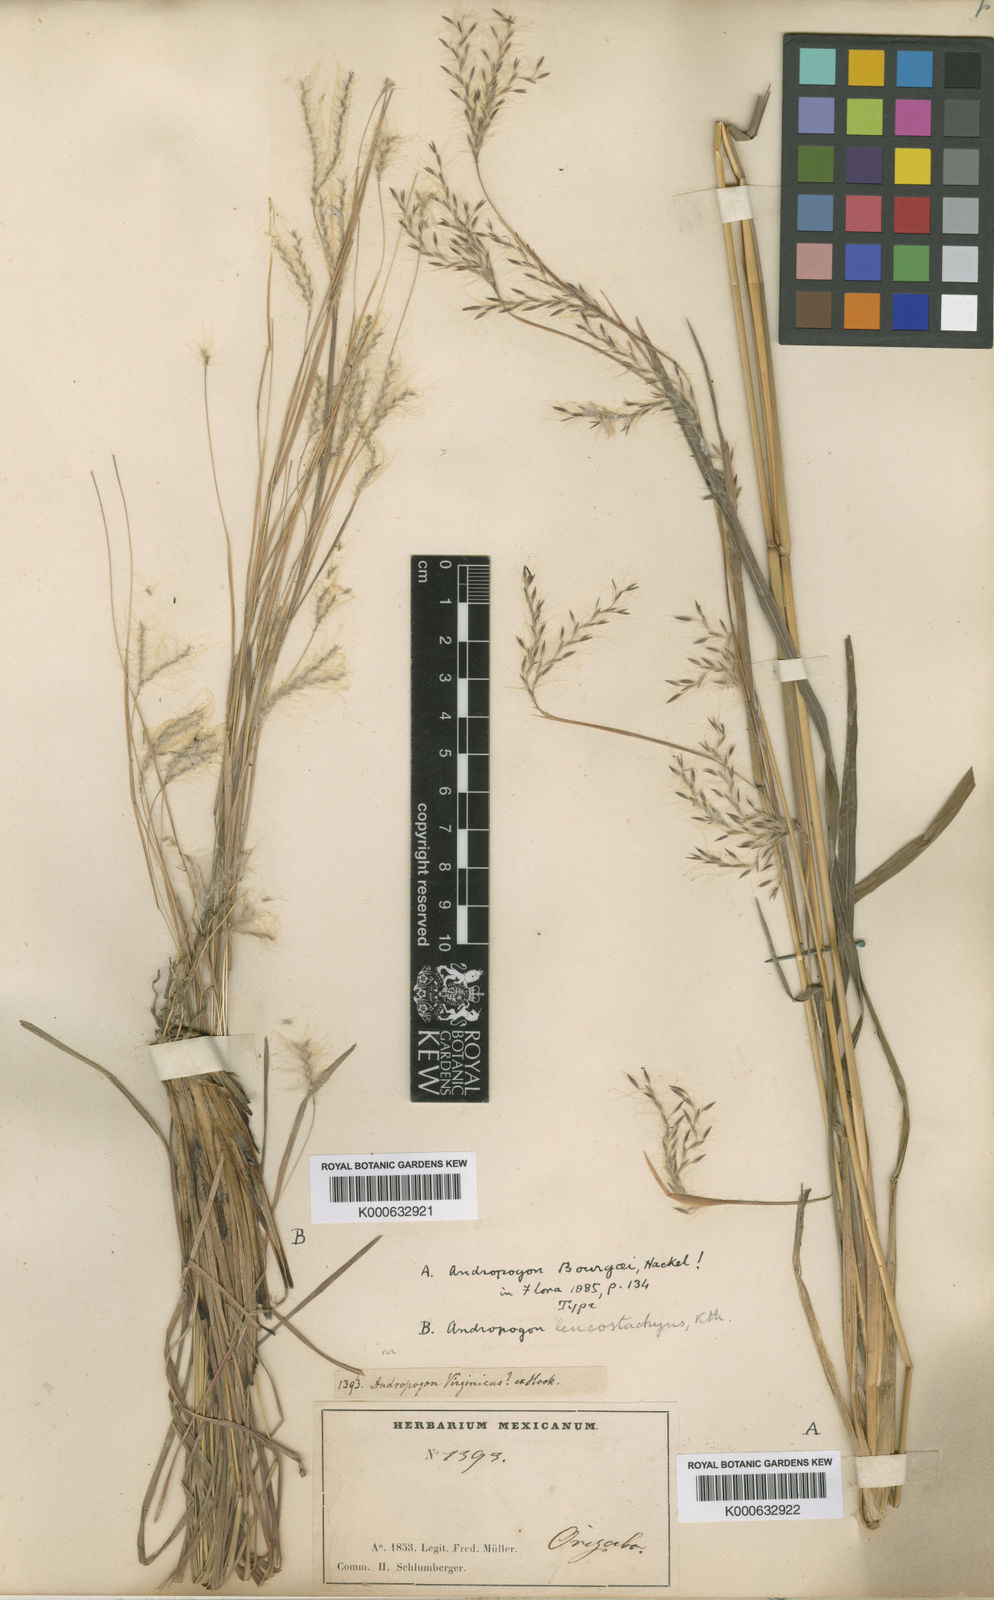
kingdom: Plantae
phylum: Tracheophyta
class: Liliopsida
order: Poales
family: Poaceae
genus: Andropogon
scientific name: Andropogon
